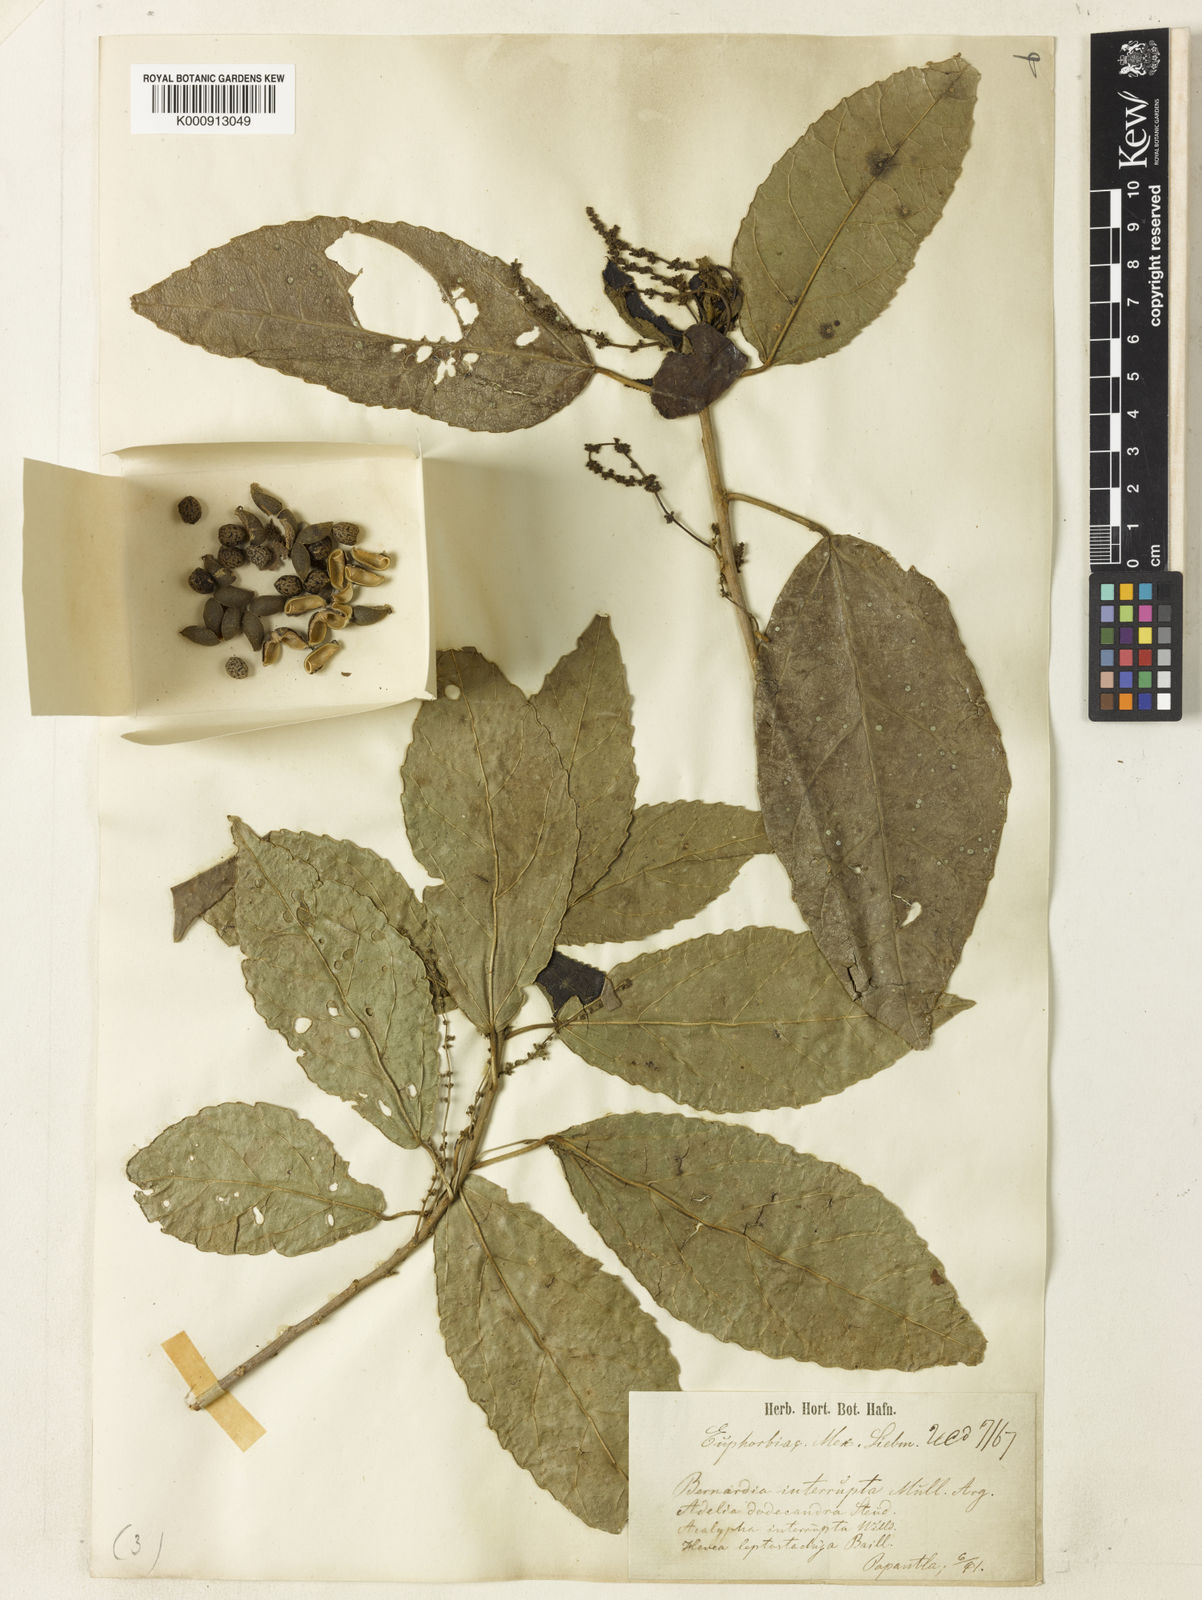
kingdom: Plantae
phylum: Tracheophyta
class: Magnoliopsida
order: Malpighiales
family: Euphorbiaceae
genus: Bernardia
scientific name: Bernardia
